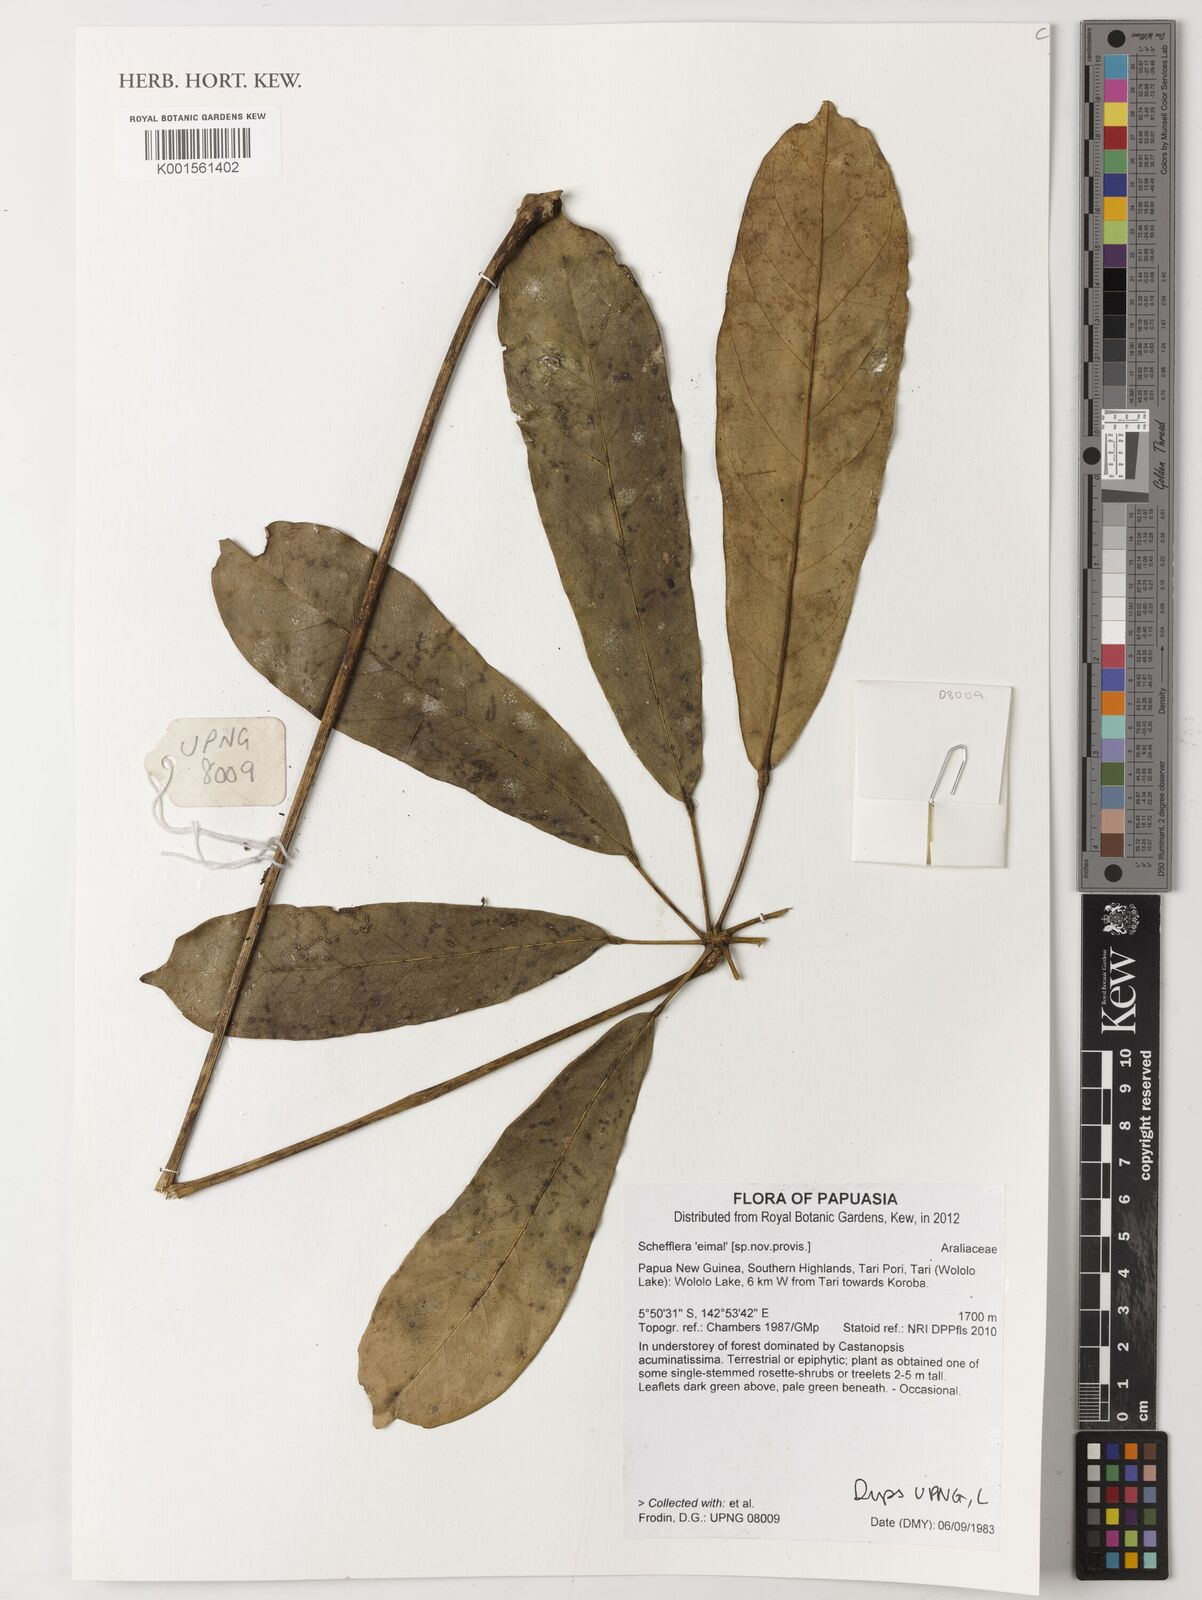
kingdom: Plantae
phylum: Tracheophyta
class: Magnoliopsida
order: Apiales
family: Araliaceae
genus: Schefflera
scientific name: Schefflera
